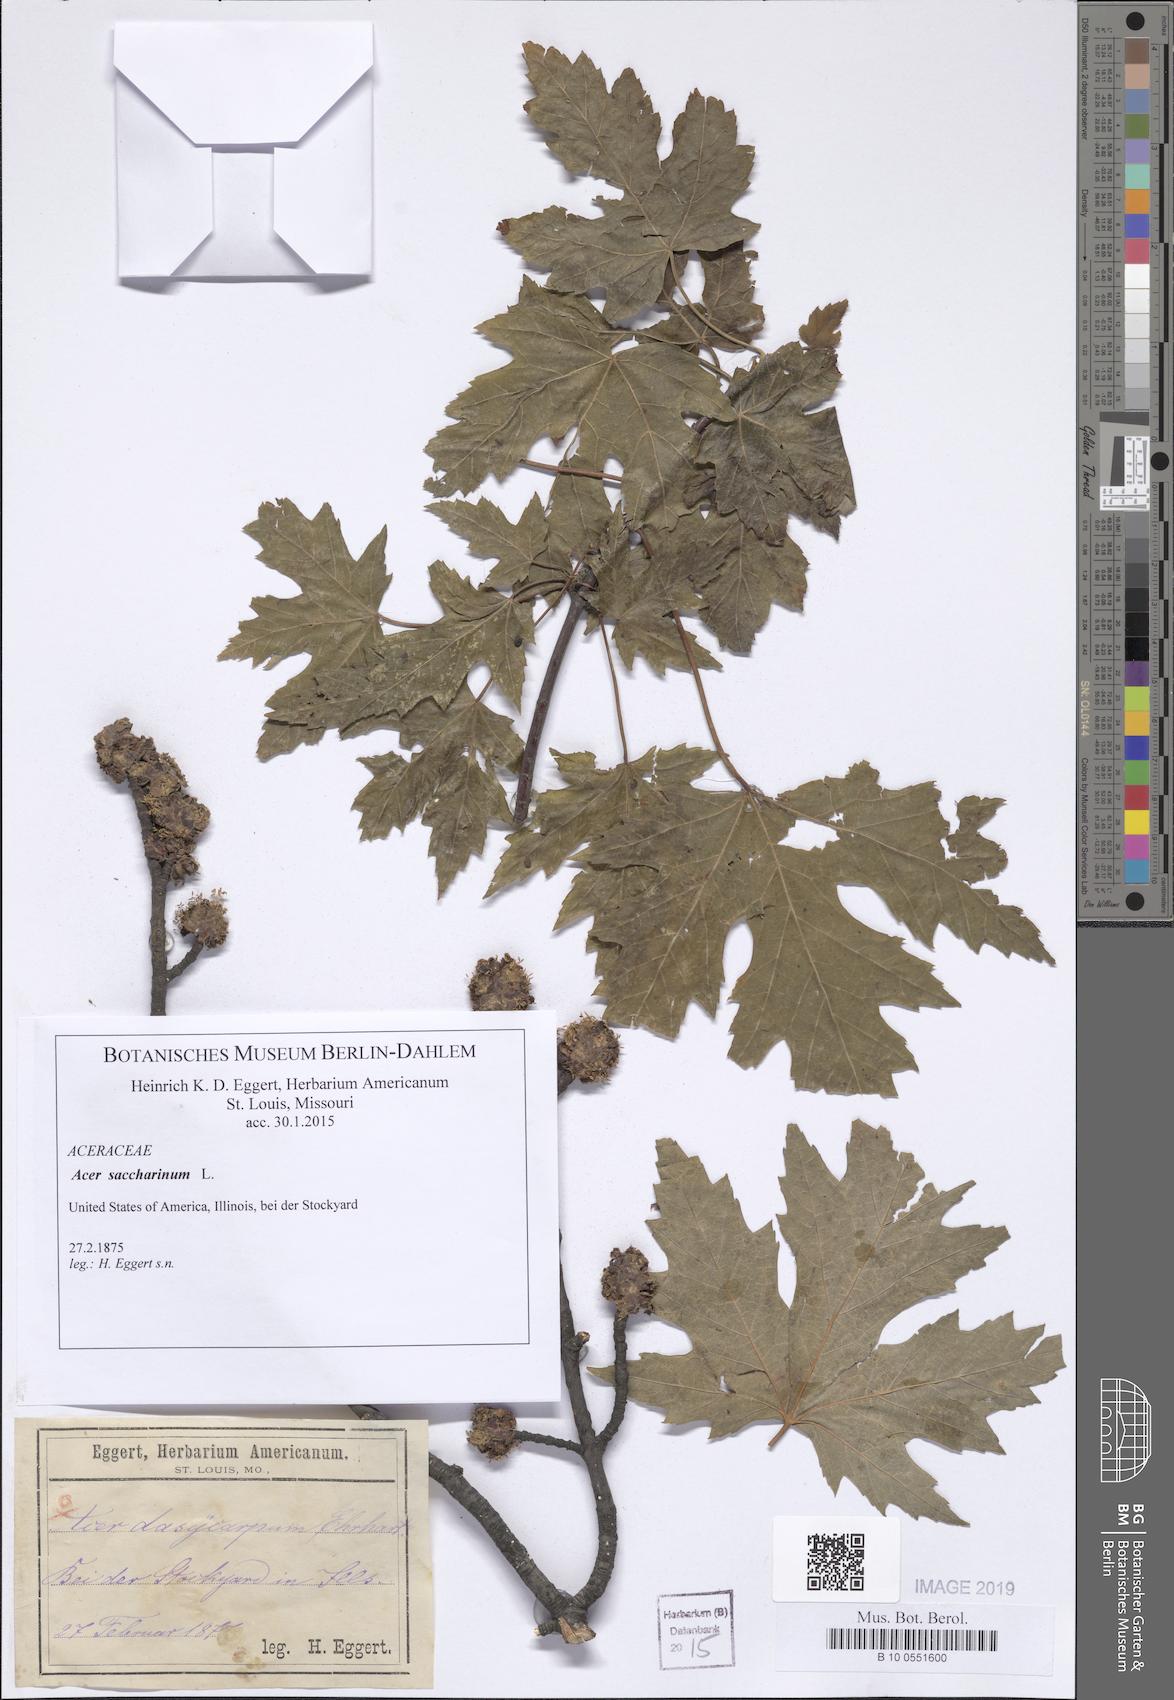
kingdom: Plantae
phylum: Tracheophyta
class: Magnoliopsida
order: Sapindales
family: Sapindaceae
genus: Acer
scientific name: Acer saccharinum
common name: Silver maple
